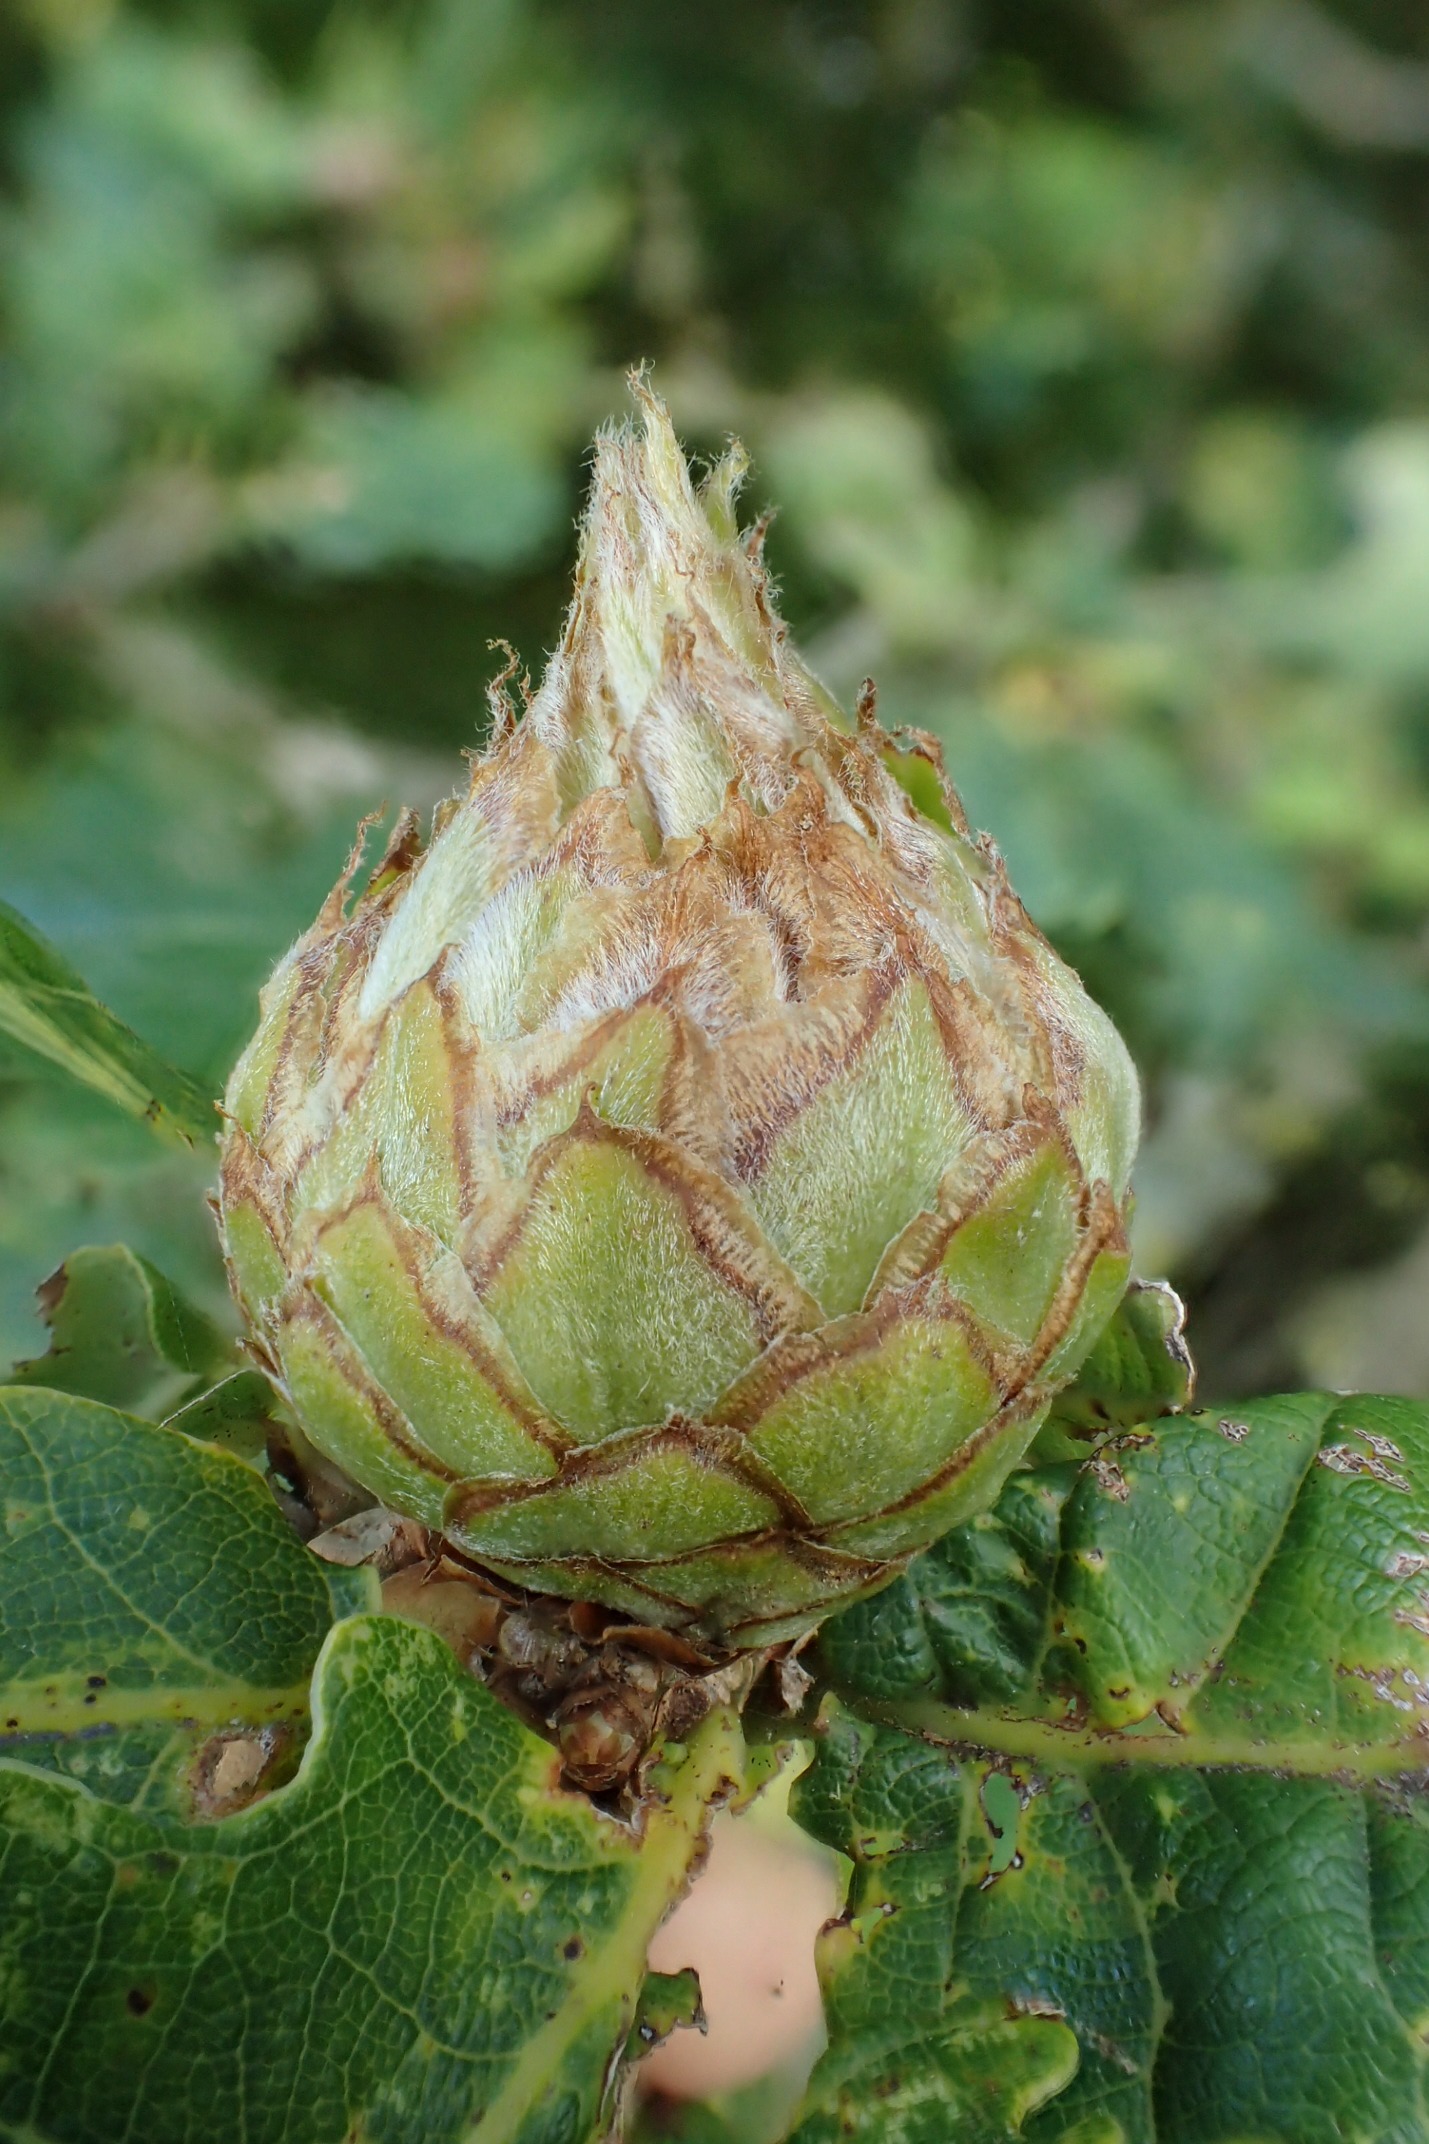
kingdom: Animalia
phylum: Arthropoda
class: Insecta
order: Hymenoptera
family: Cynipidae
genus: Andricus
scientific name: Andricus foecundatrix
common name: Artiskokgalhveps
